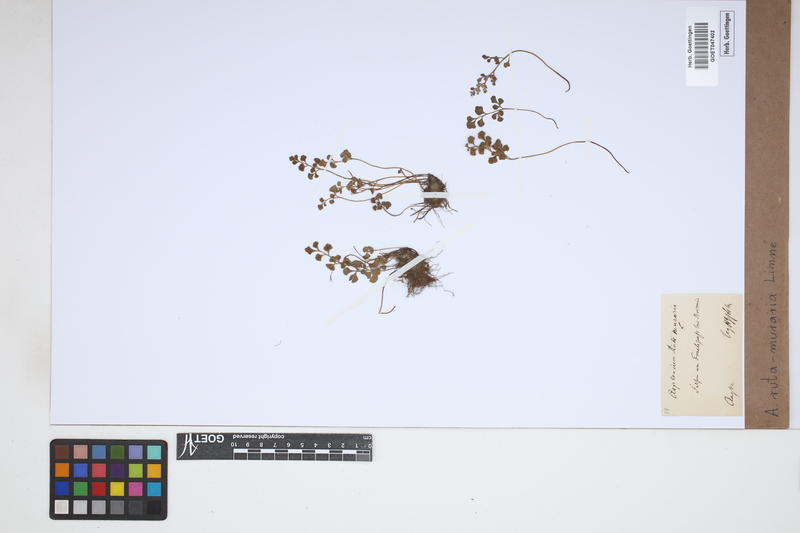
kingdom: Plantae
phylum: Tracheophyta
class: Polypodiopsida
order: Polypodiales
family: Aspleniaceae
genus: Asplenium
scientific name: Asplenium ruta-muraria
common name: Wall-rue
